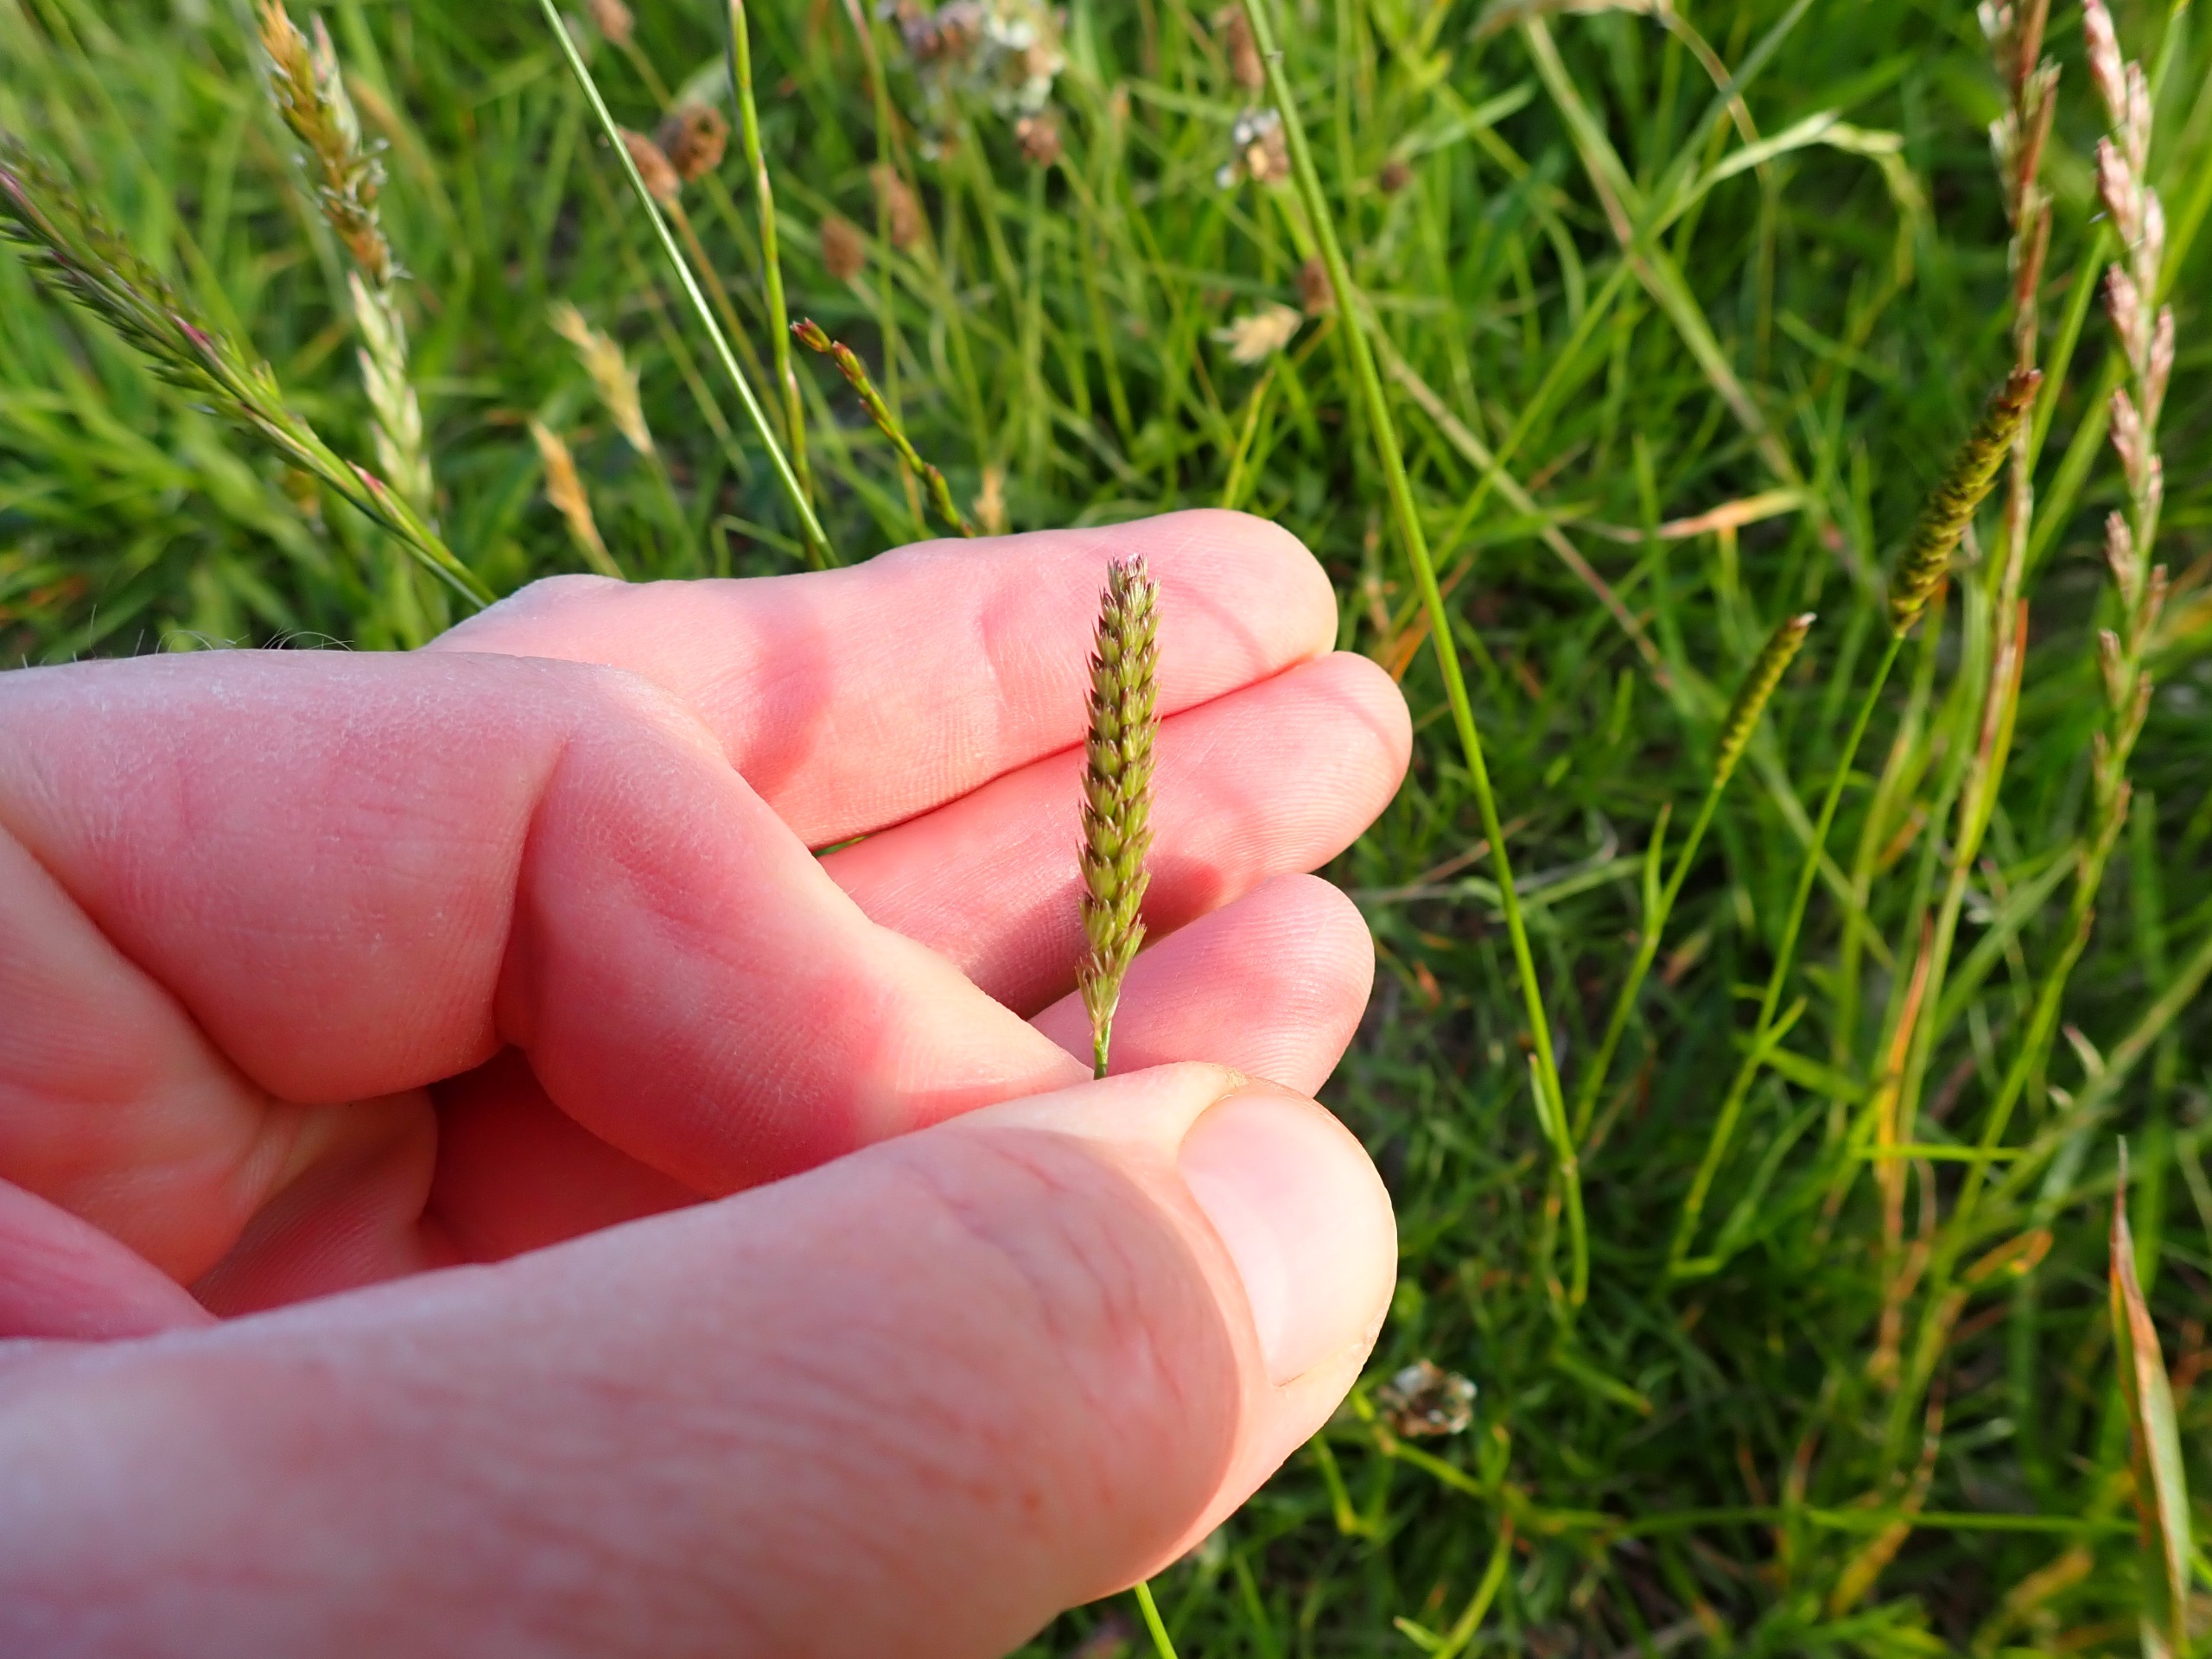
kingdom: Plantae
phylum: Tracheophyta
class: Liliopsida
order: Poales
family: Poaceae
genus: Cynosurus
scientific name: Cynosurus cristatus
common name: Kamgræs
